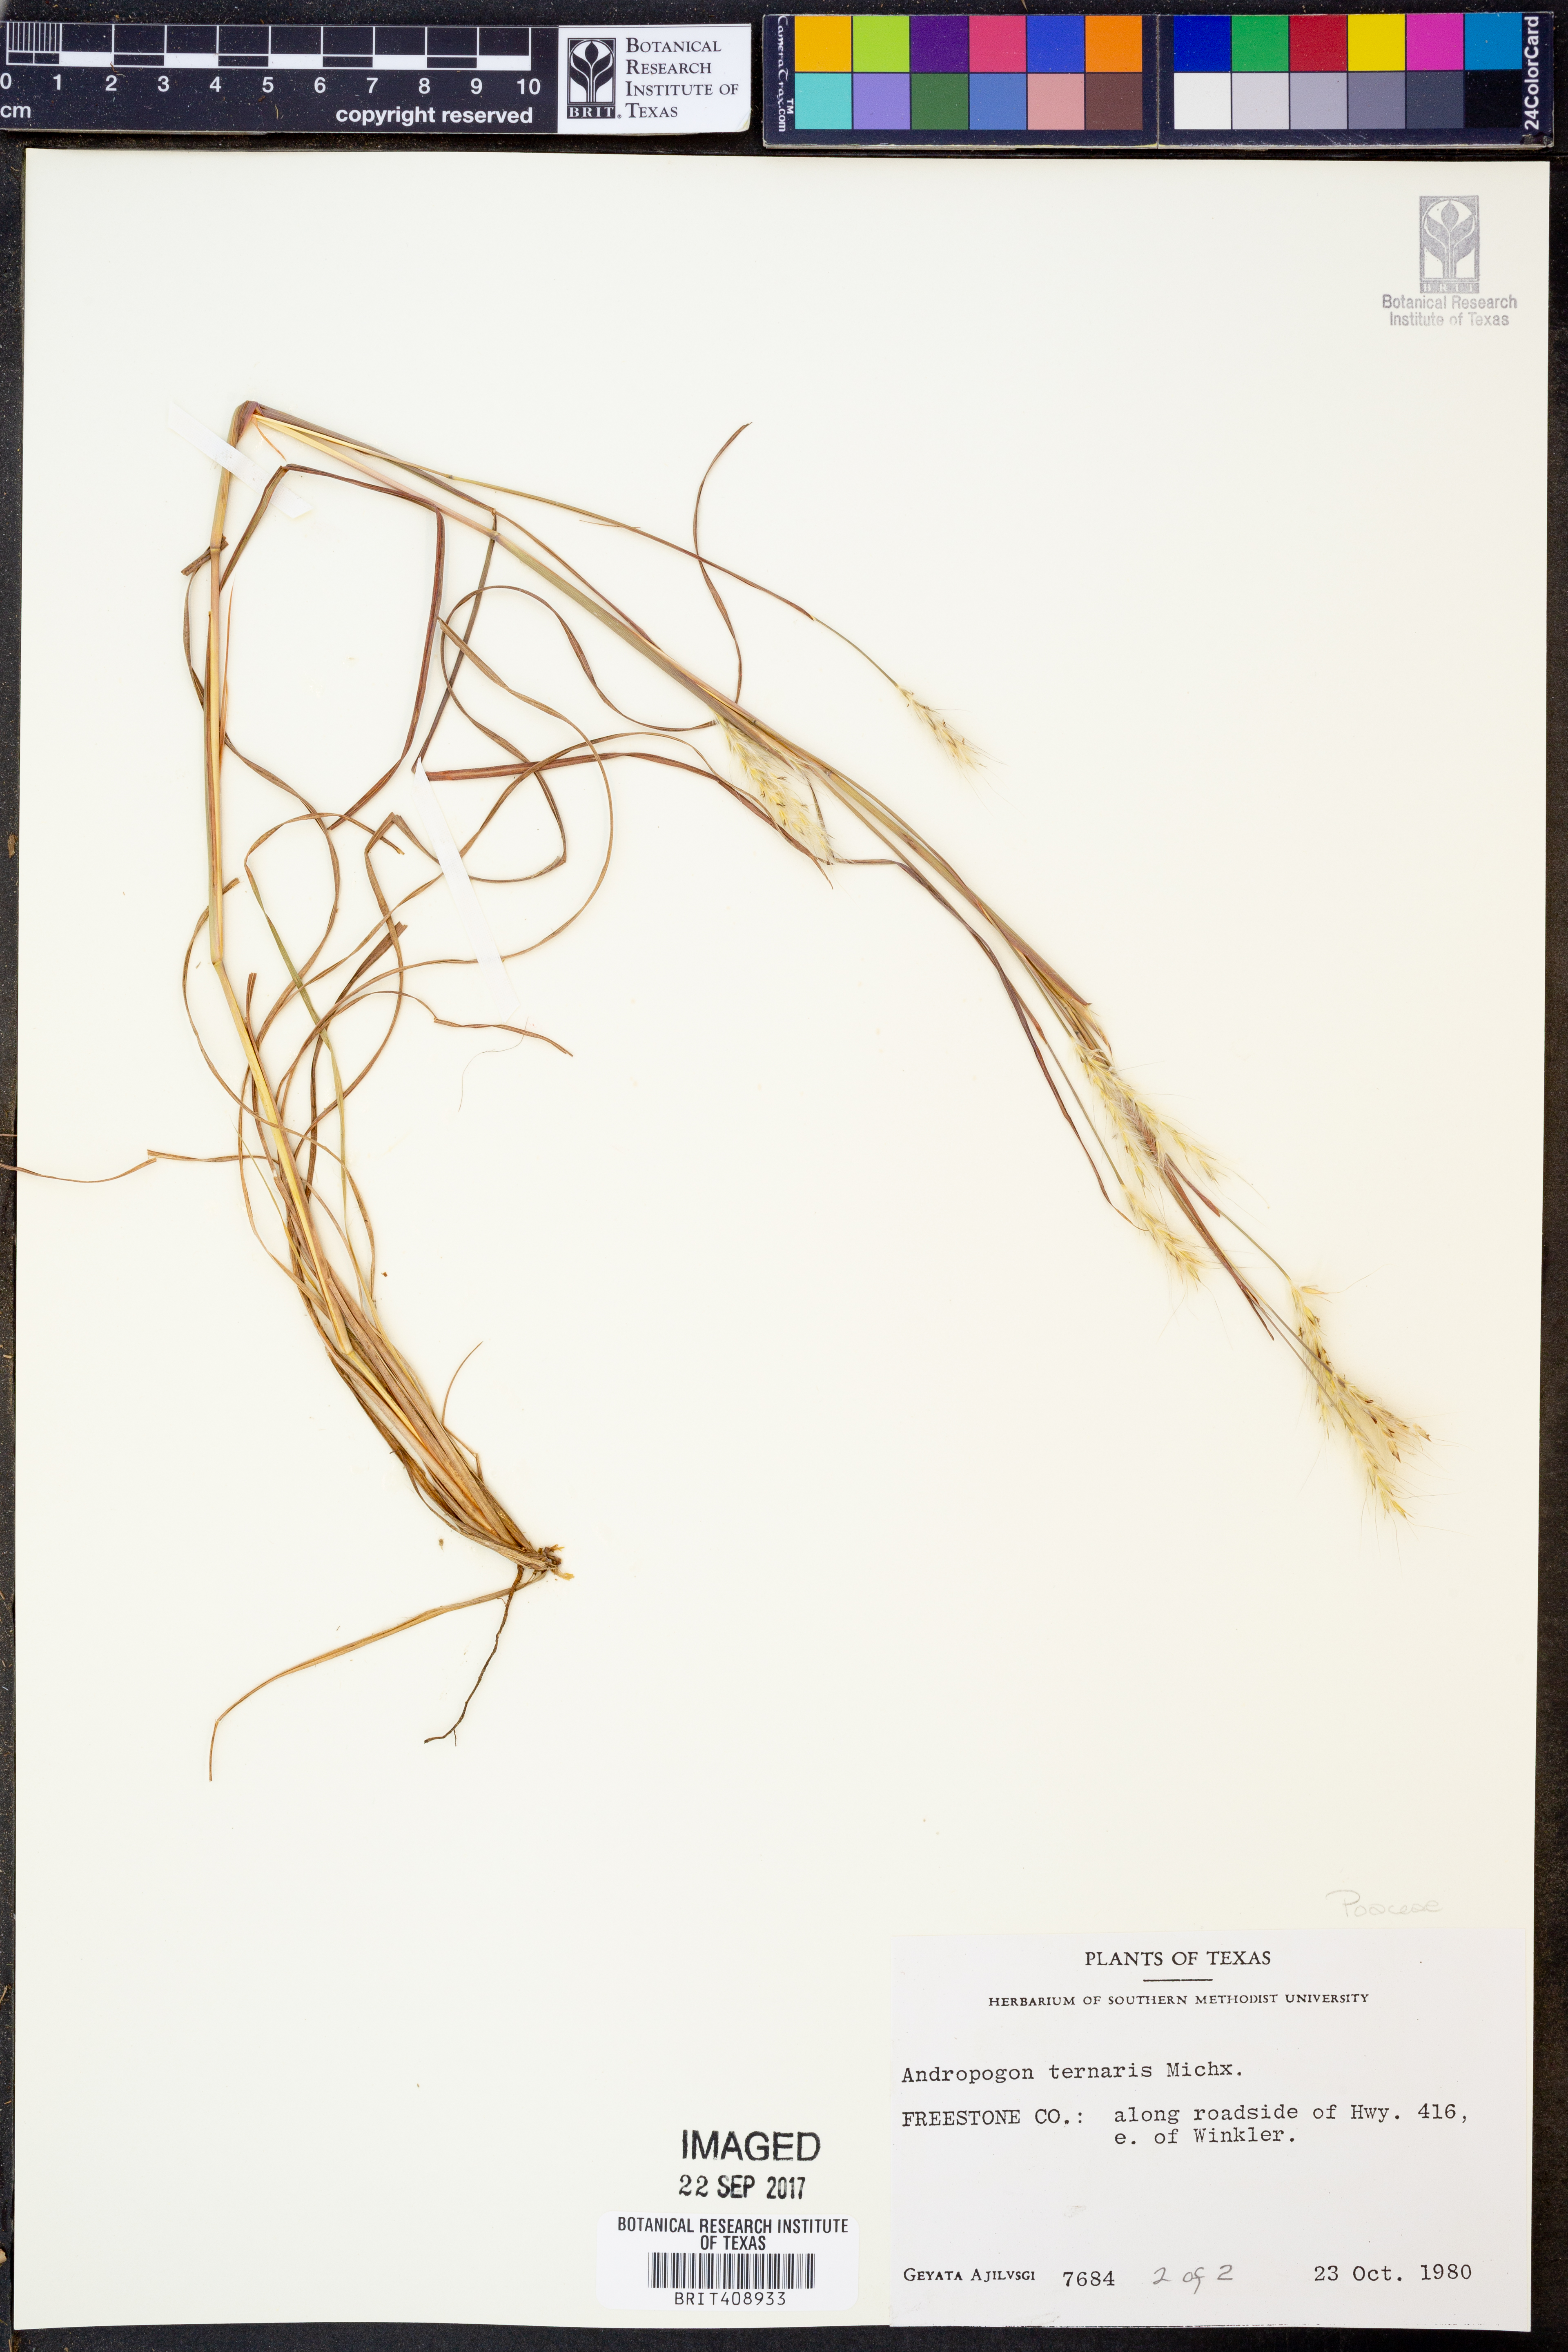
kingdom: Plantae
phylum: Tracheophyta
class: Liliopsida
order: Poales
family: Poaceae
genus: Andropogon
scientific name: Andropogon ternarius
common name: Split bluestem
